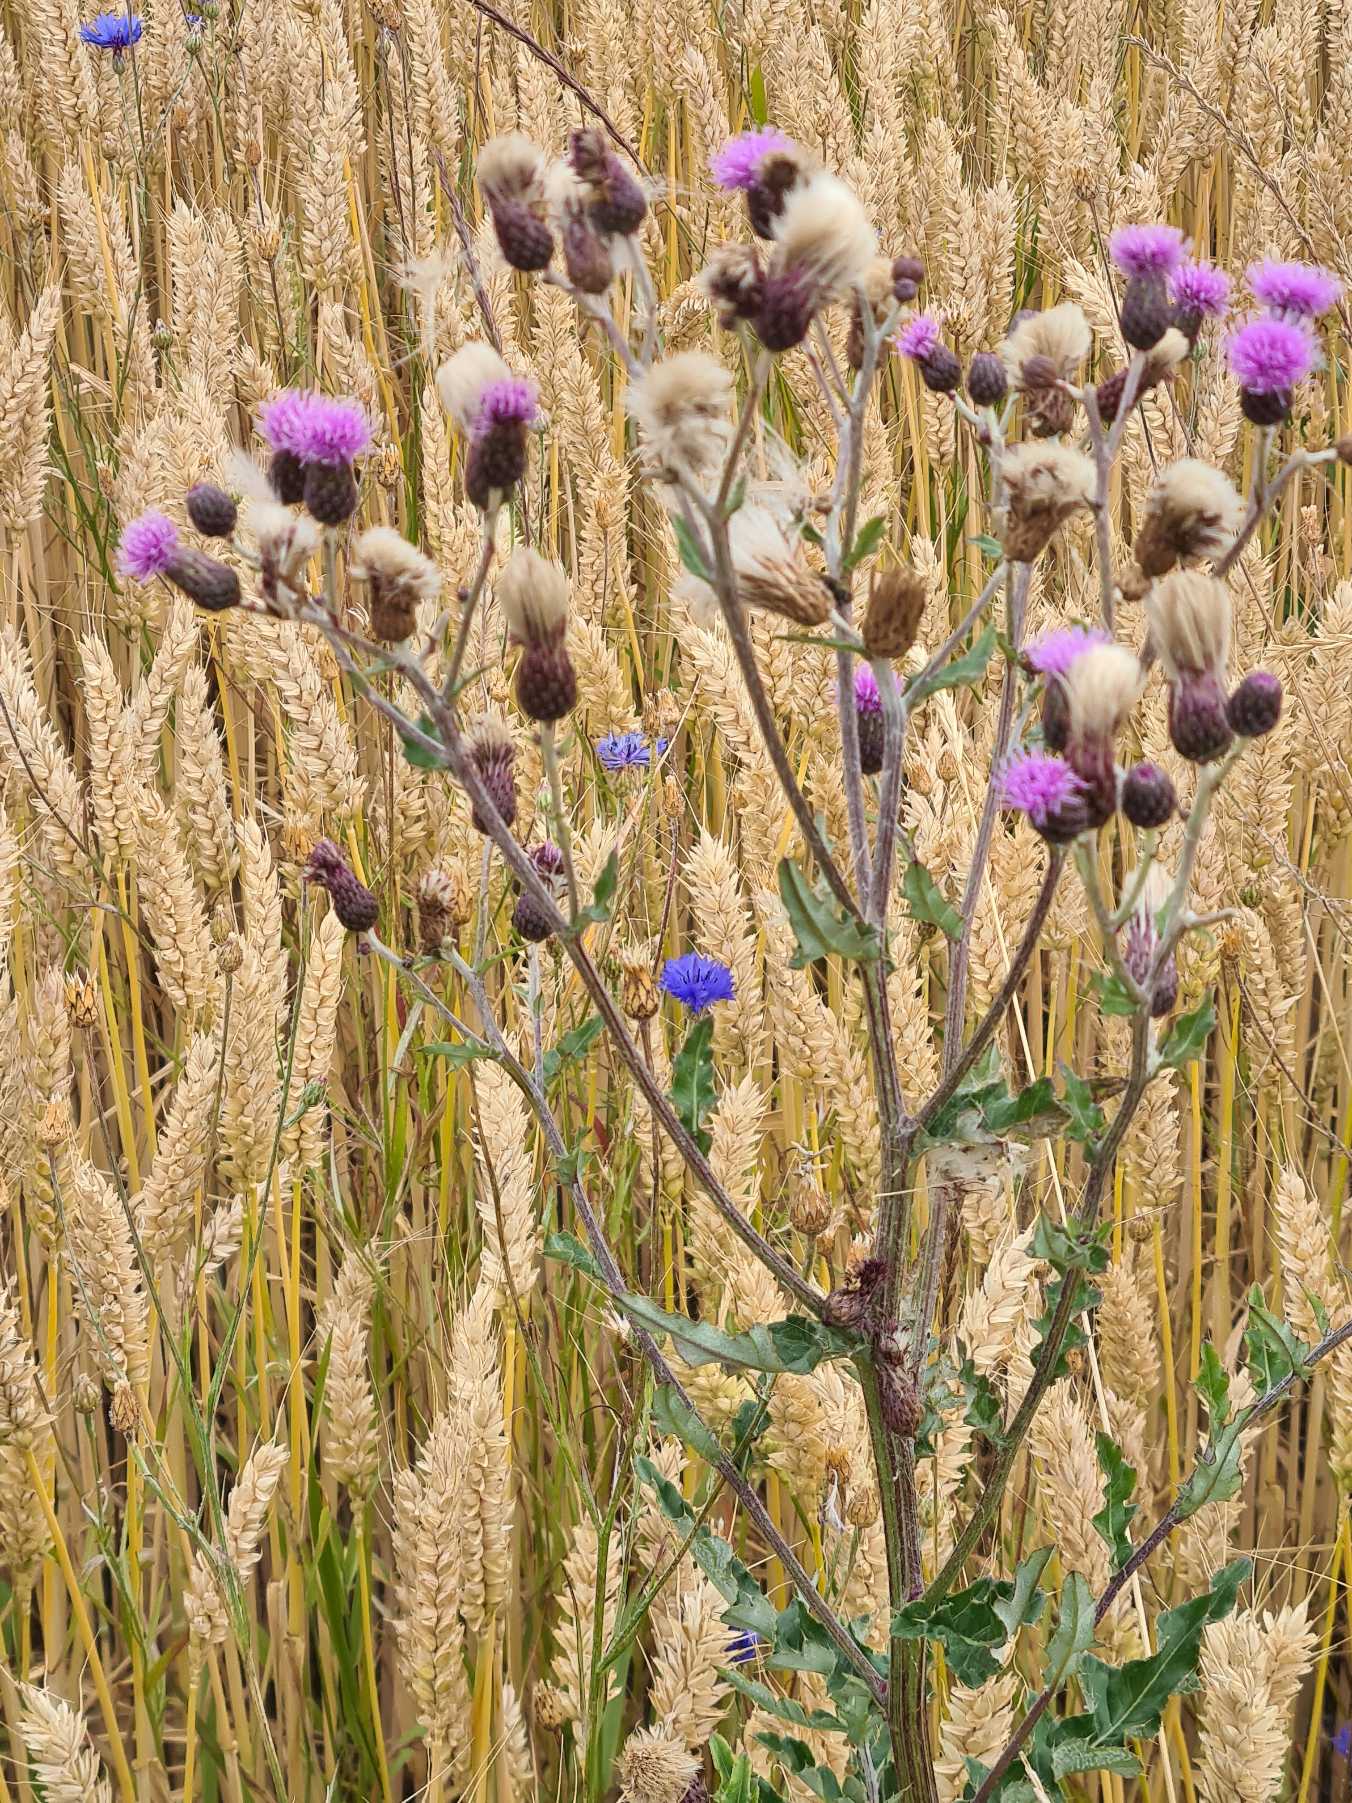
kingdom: Plantae
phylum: Tracheophyta
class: Magnoliopsida
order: Asterales
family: Asteraceae
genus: Cirsium
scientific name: Cirsium arvense
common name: Ager-tidsel
